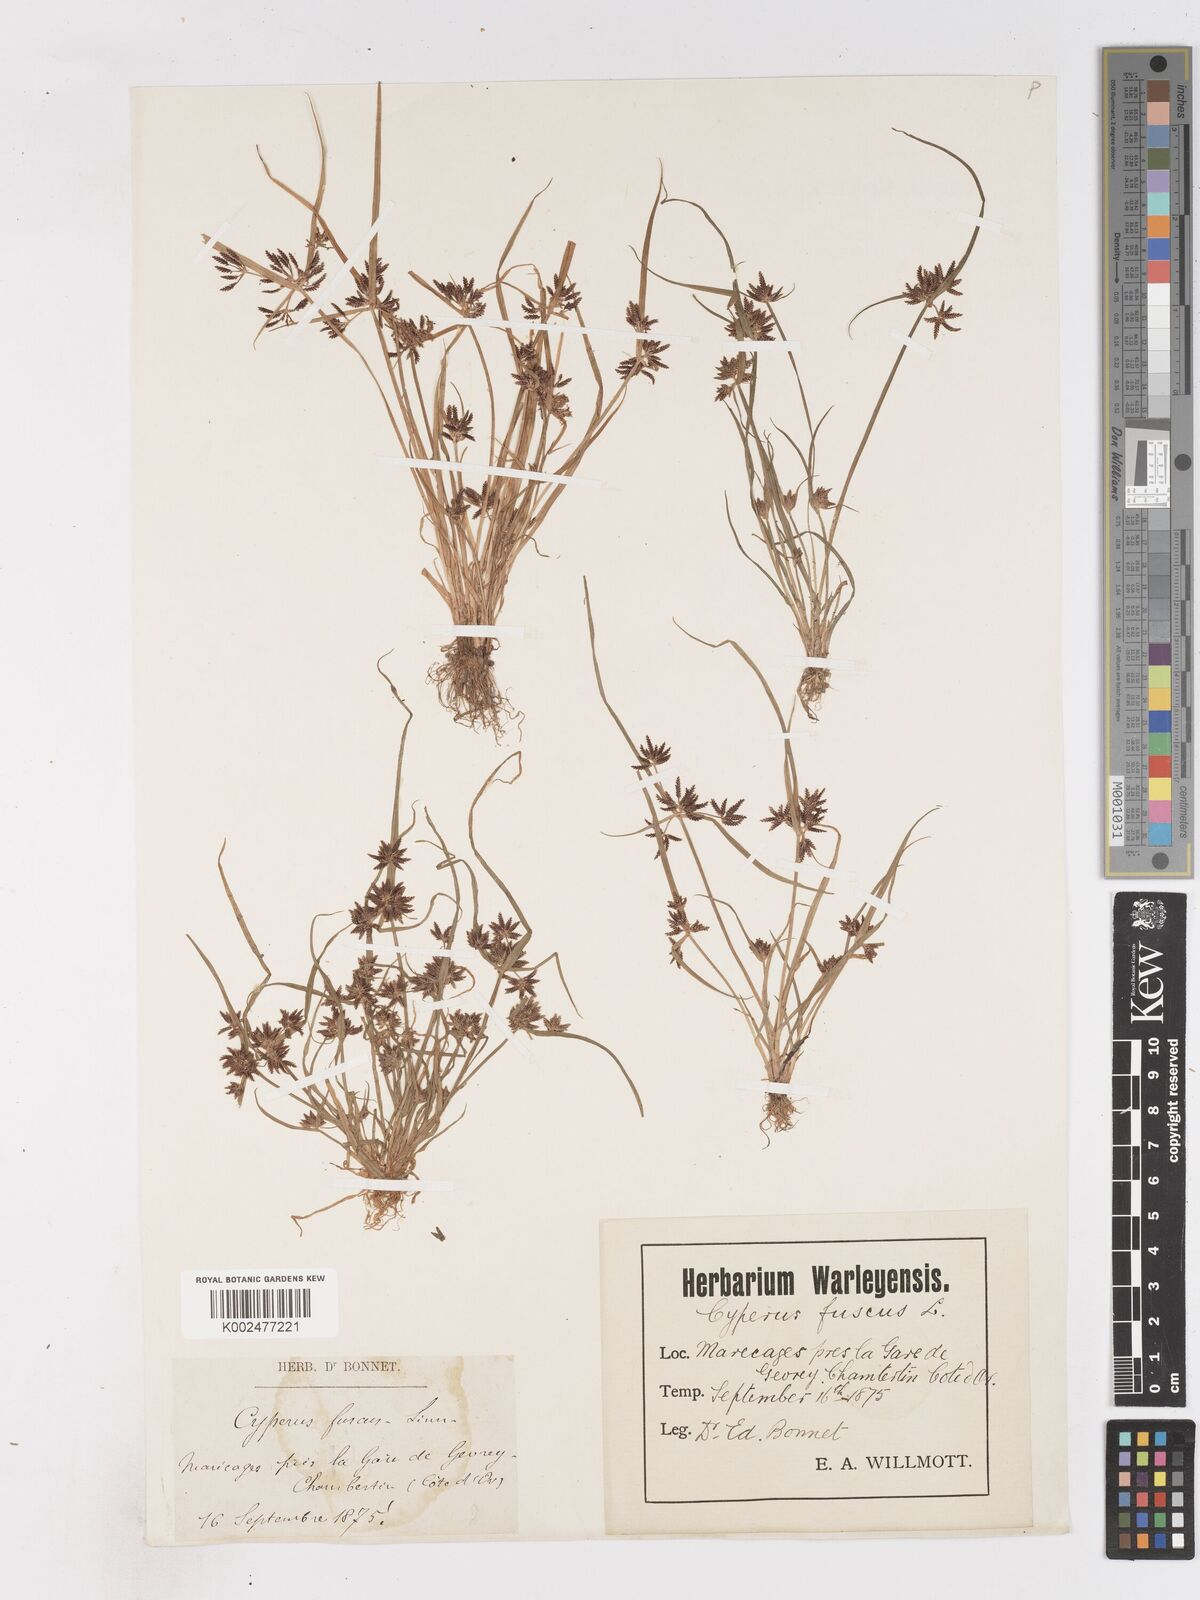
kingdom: Plantae
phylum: Tracheophyta
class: Liliopsida
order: Poales
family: Cyperaceae
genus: Cyperus
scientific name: Cyperus fuscus
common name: Brown galingale
